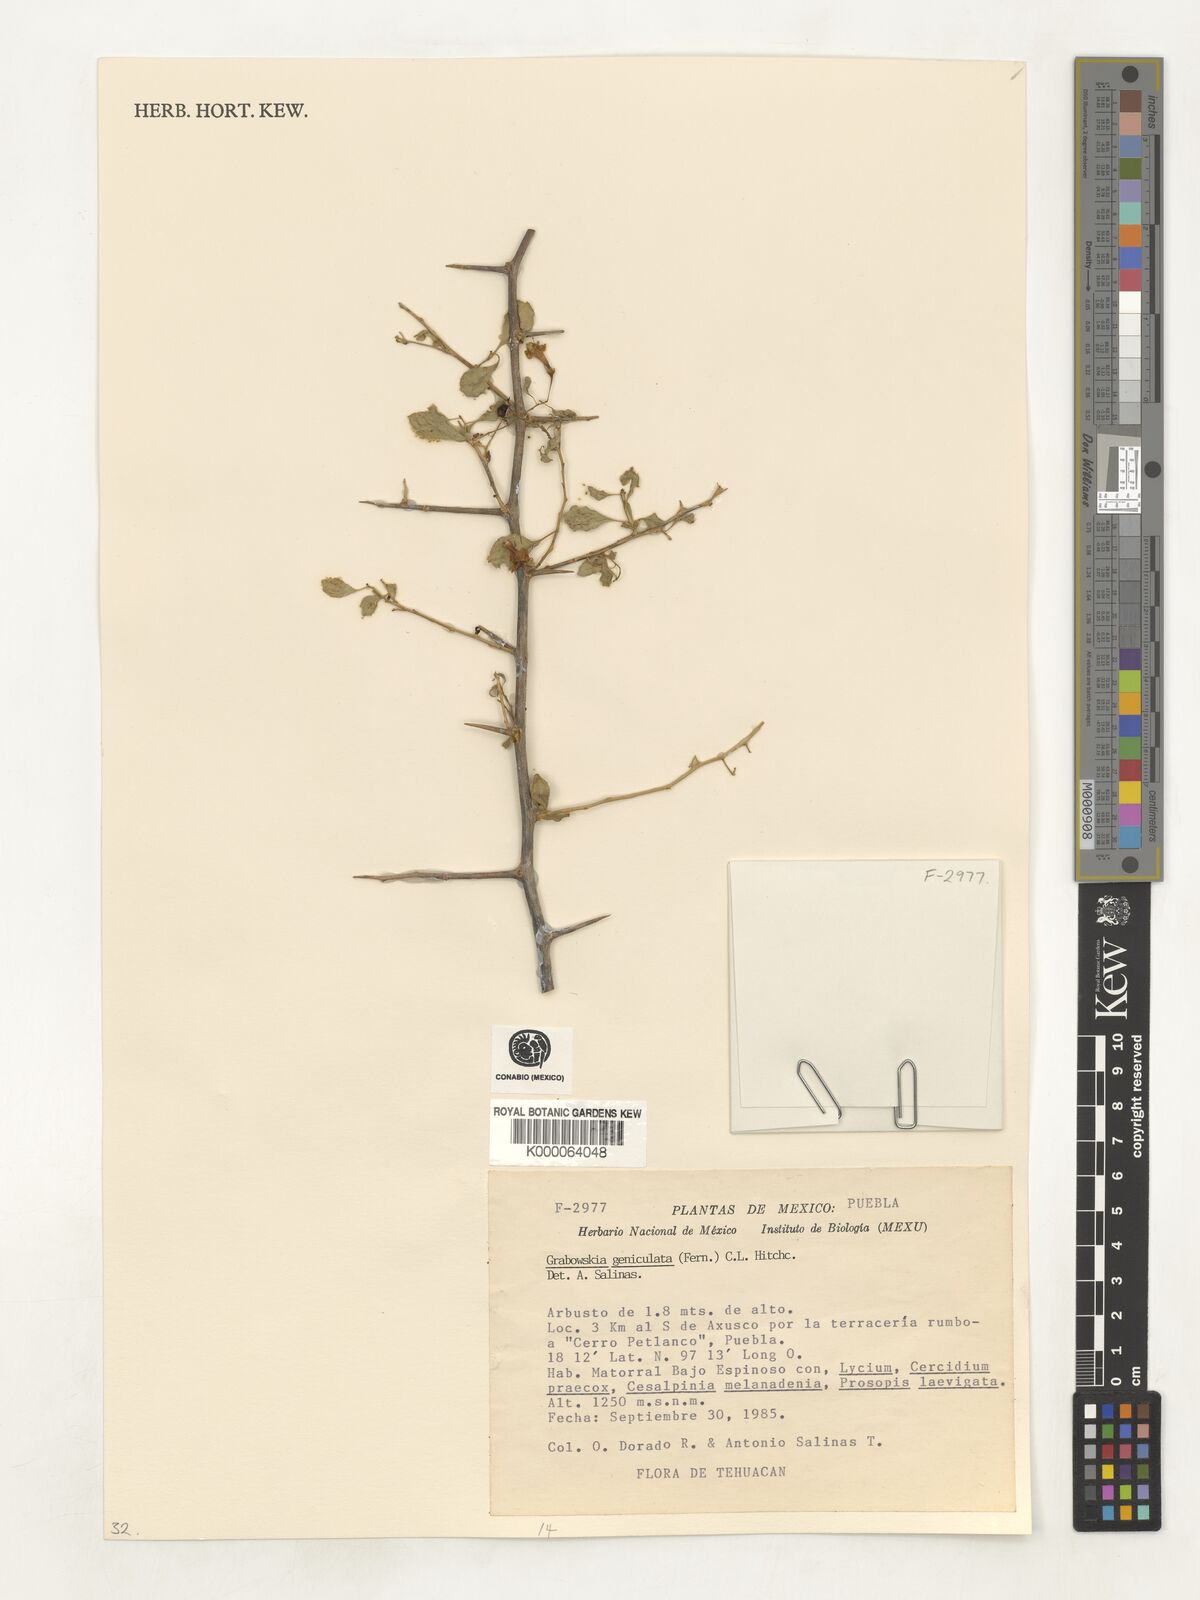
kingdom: Plantae
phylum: Tracheophyta
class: Magnoliopsida
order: Solanales
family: Solanaceae
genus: Lycium
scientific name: Lycium geniculatum
